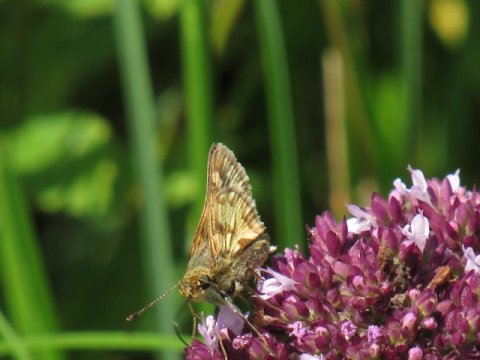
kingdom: Animalia
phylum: Arthropoda
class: Insecta
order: Lepidoptera
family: Hesperiidae
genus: Polites
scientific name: Polites coras
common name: Peck's Skipper
